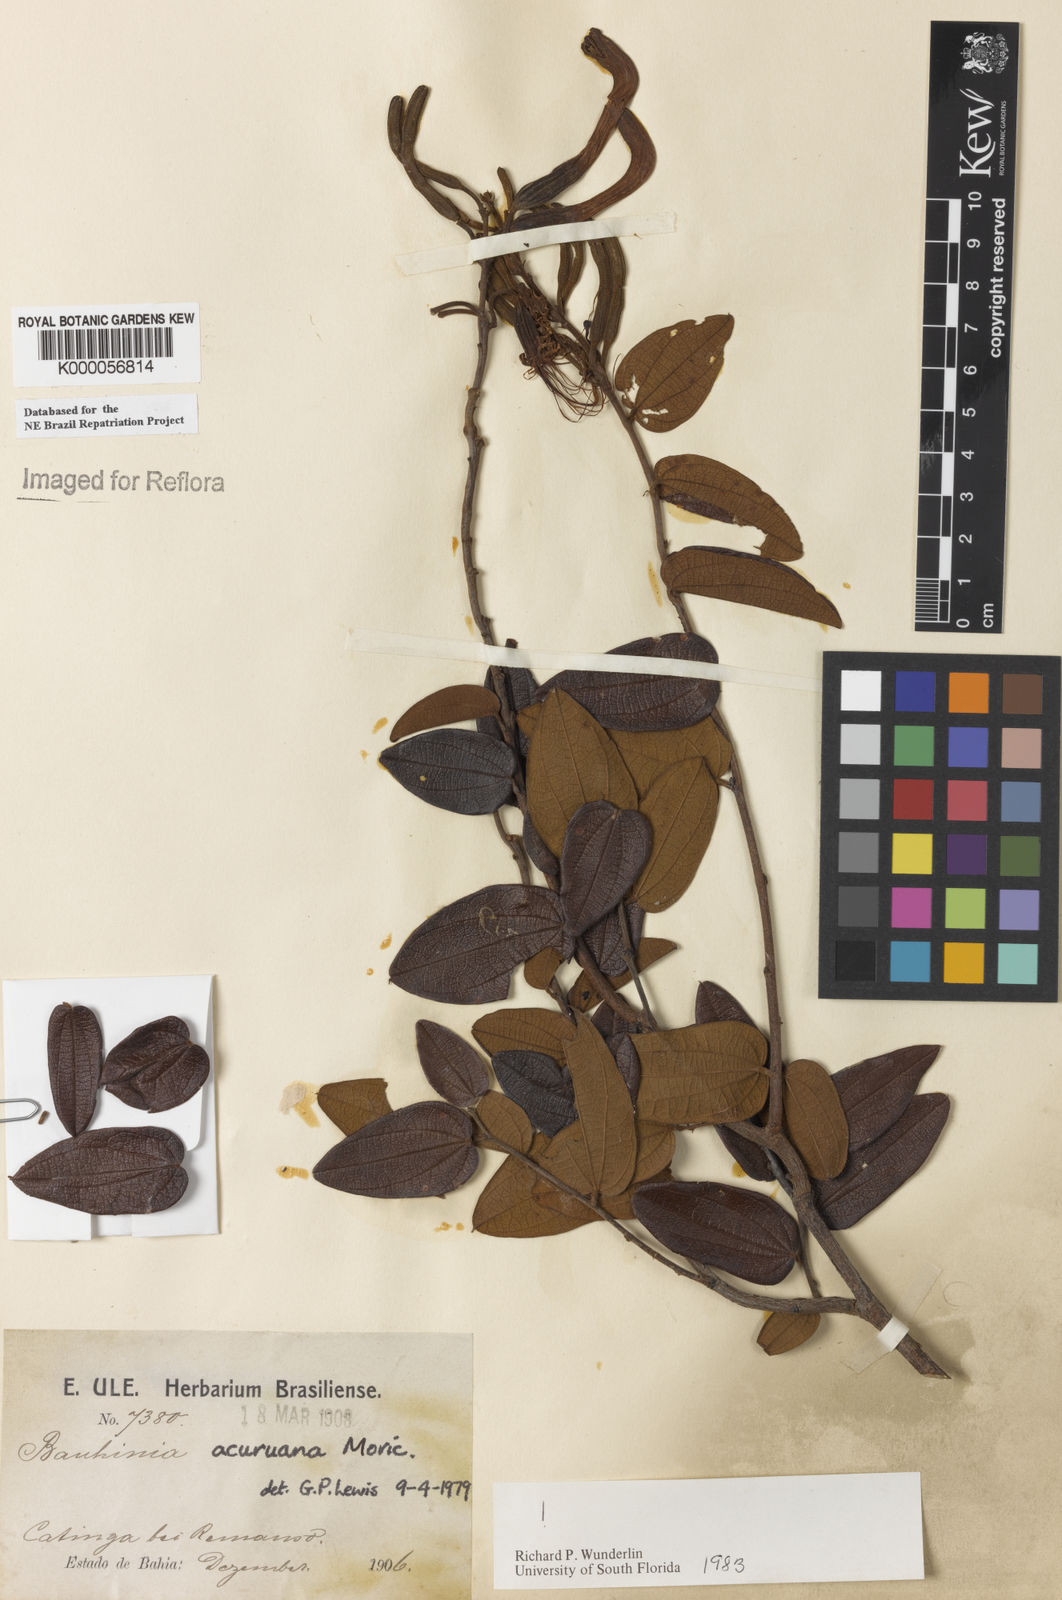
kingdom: Plantae
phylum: Tracheophyta
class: Magnoliopsida
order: Fabales
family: Fabaceae
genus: Bauhinia
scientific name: Bauhinia acuruana
